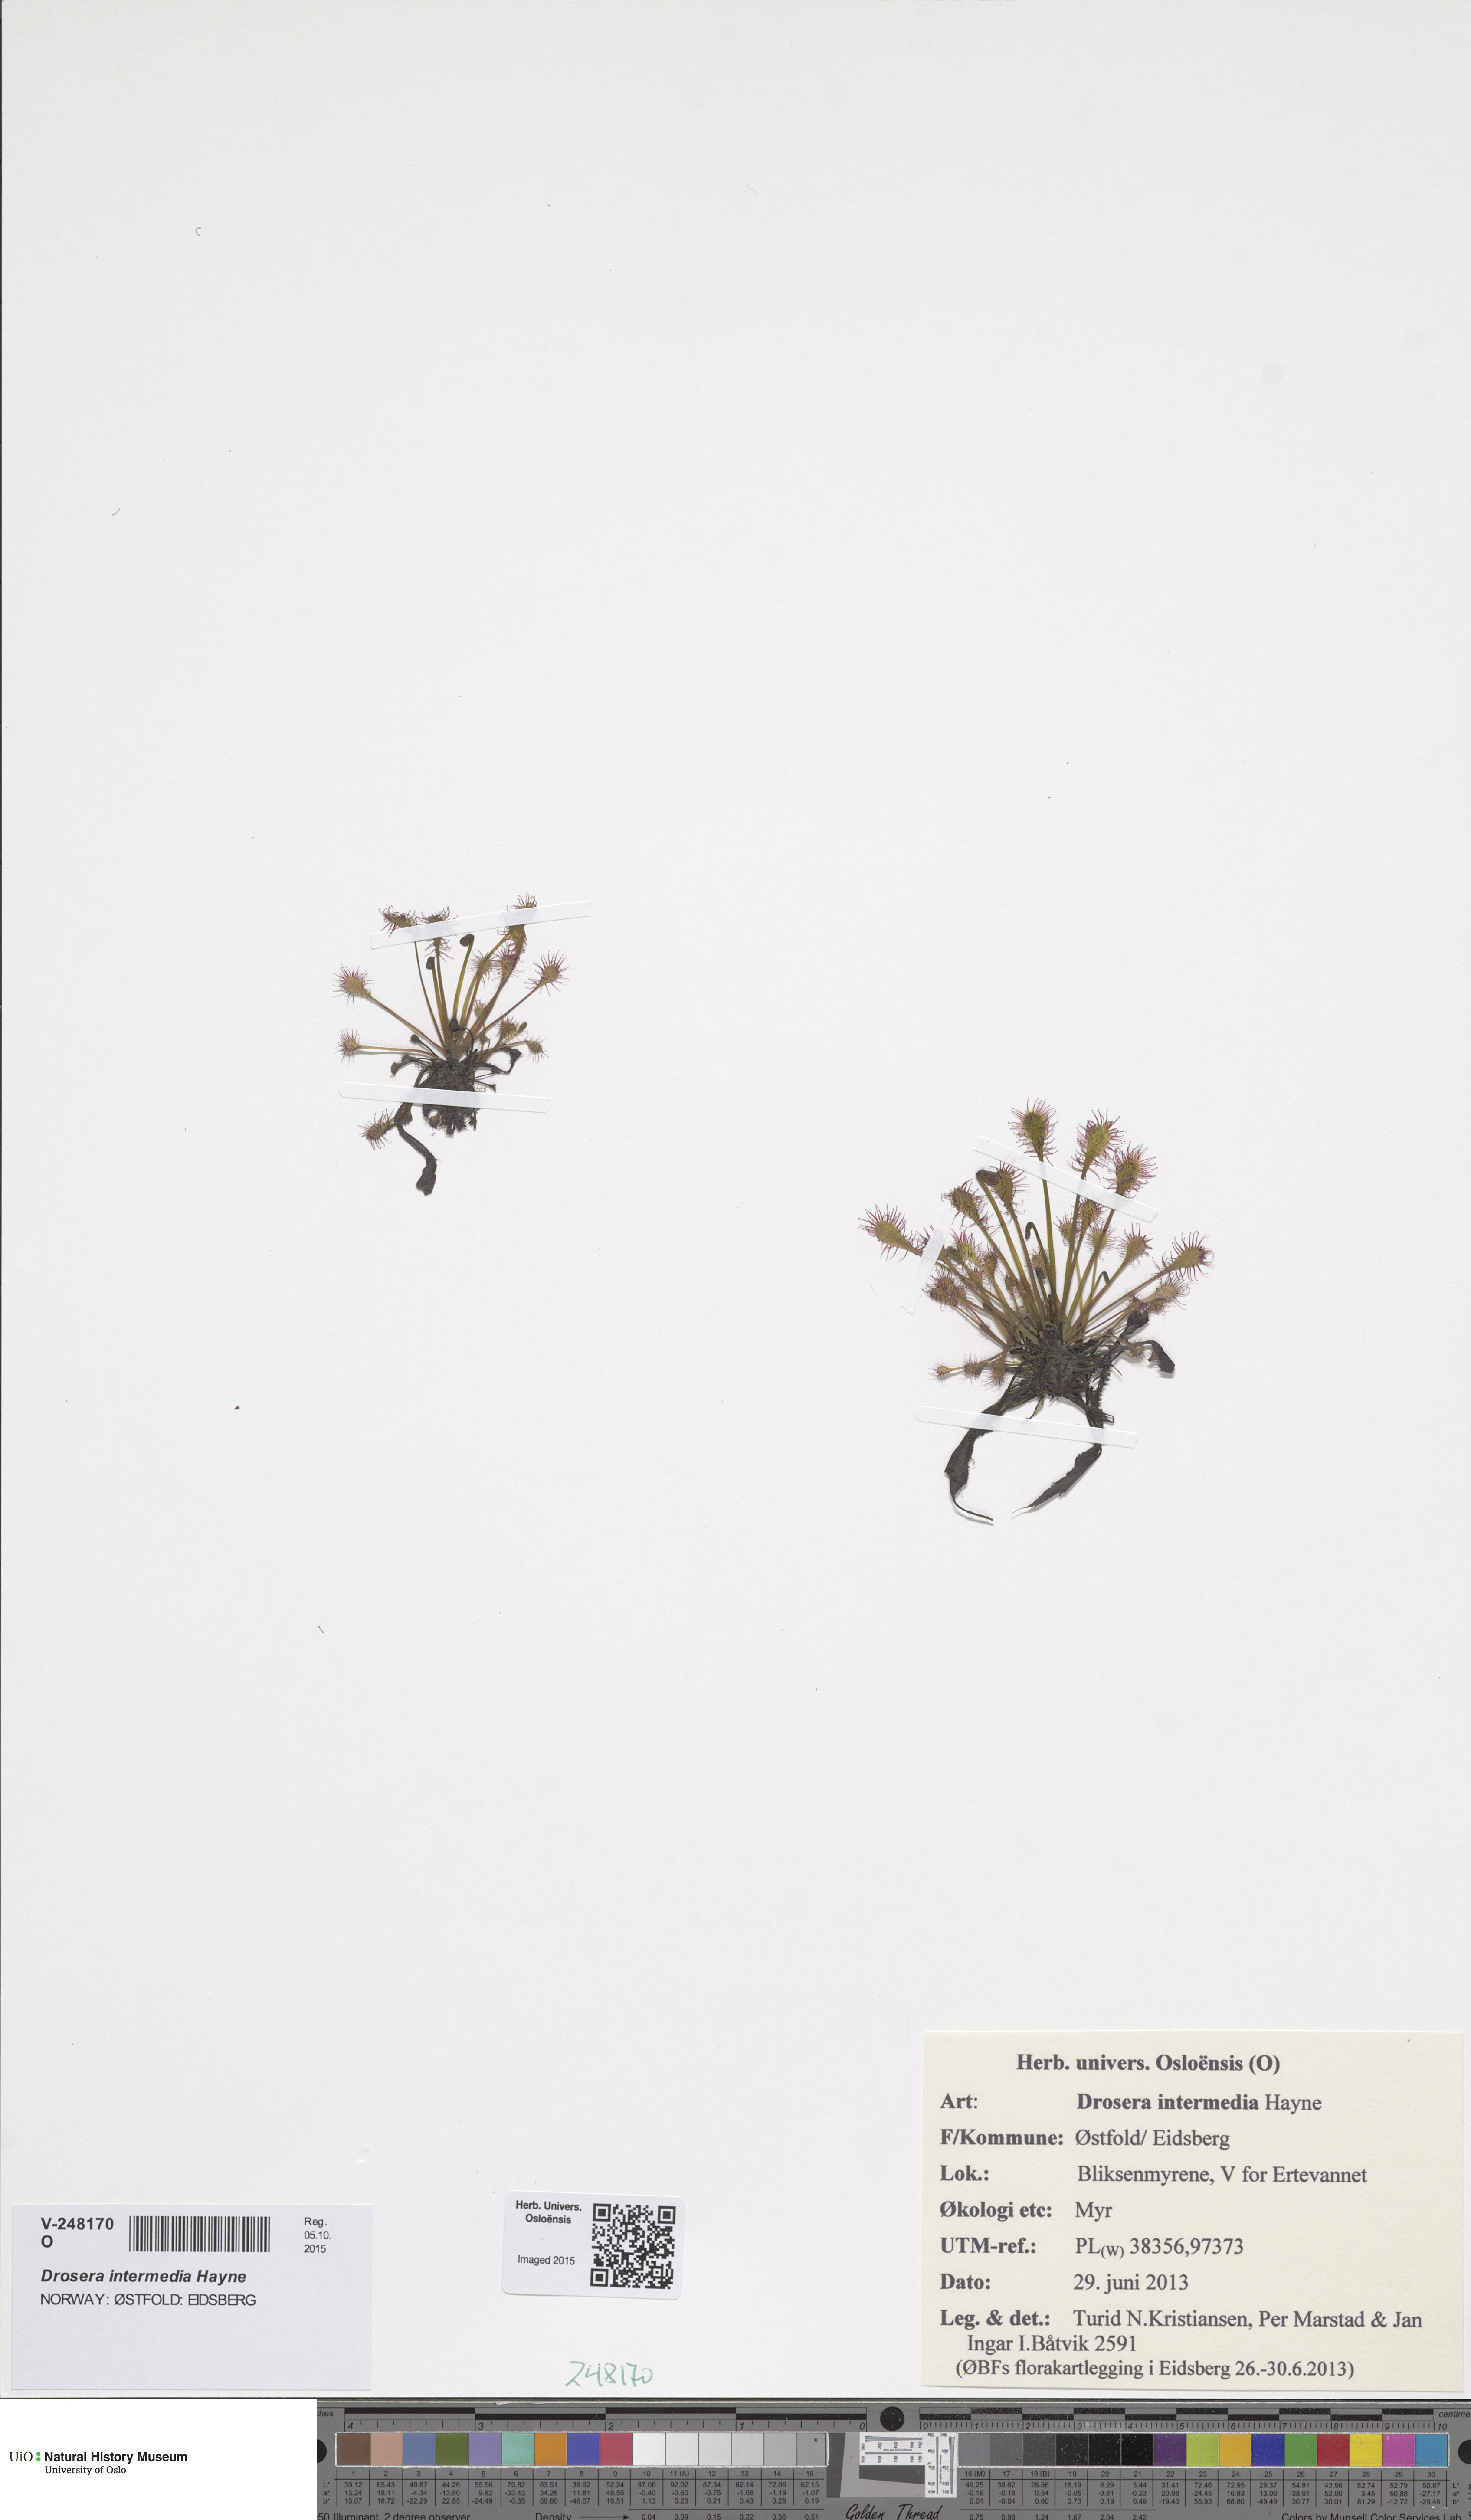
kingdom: Plantae
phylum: Tracheophyta
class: Magnoliopsida
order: Caryophyllales
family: Droseraceae
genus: Drosera
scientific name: Drosera intermedia
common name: Oblong-leaved sundew
